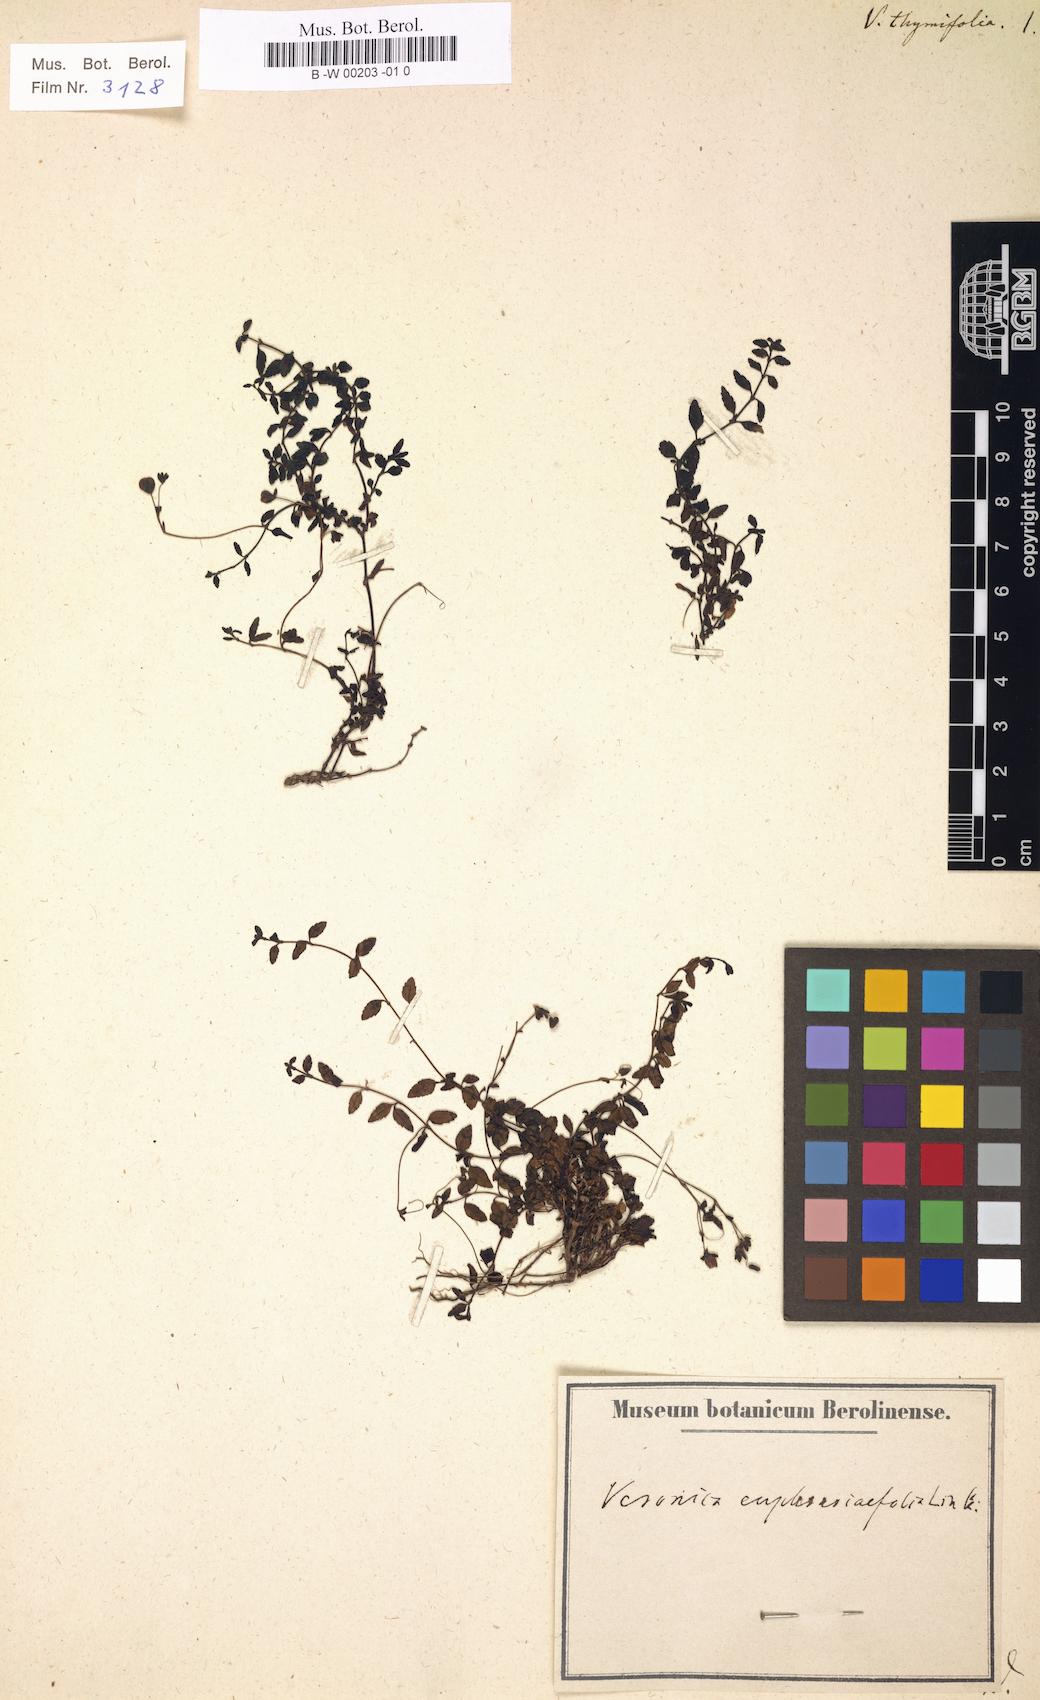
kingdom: Plantae
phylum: Tracheophyta
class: Magnoliopsida
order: Lamiales
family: Plantaginaceae
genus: Veronica
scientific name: Veronica thymifolia
